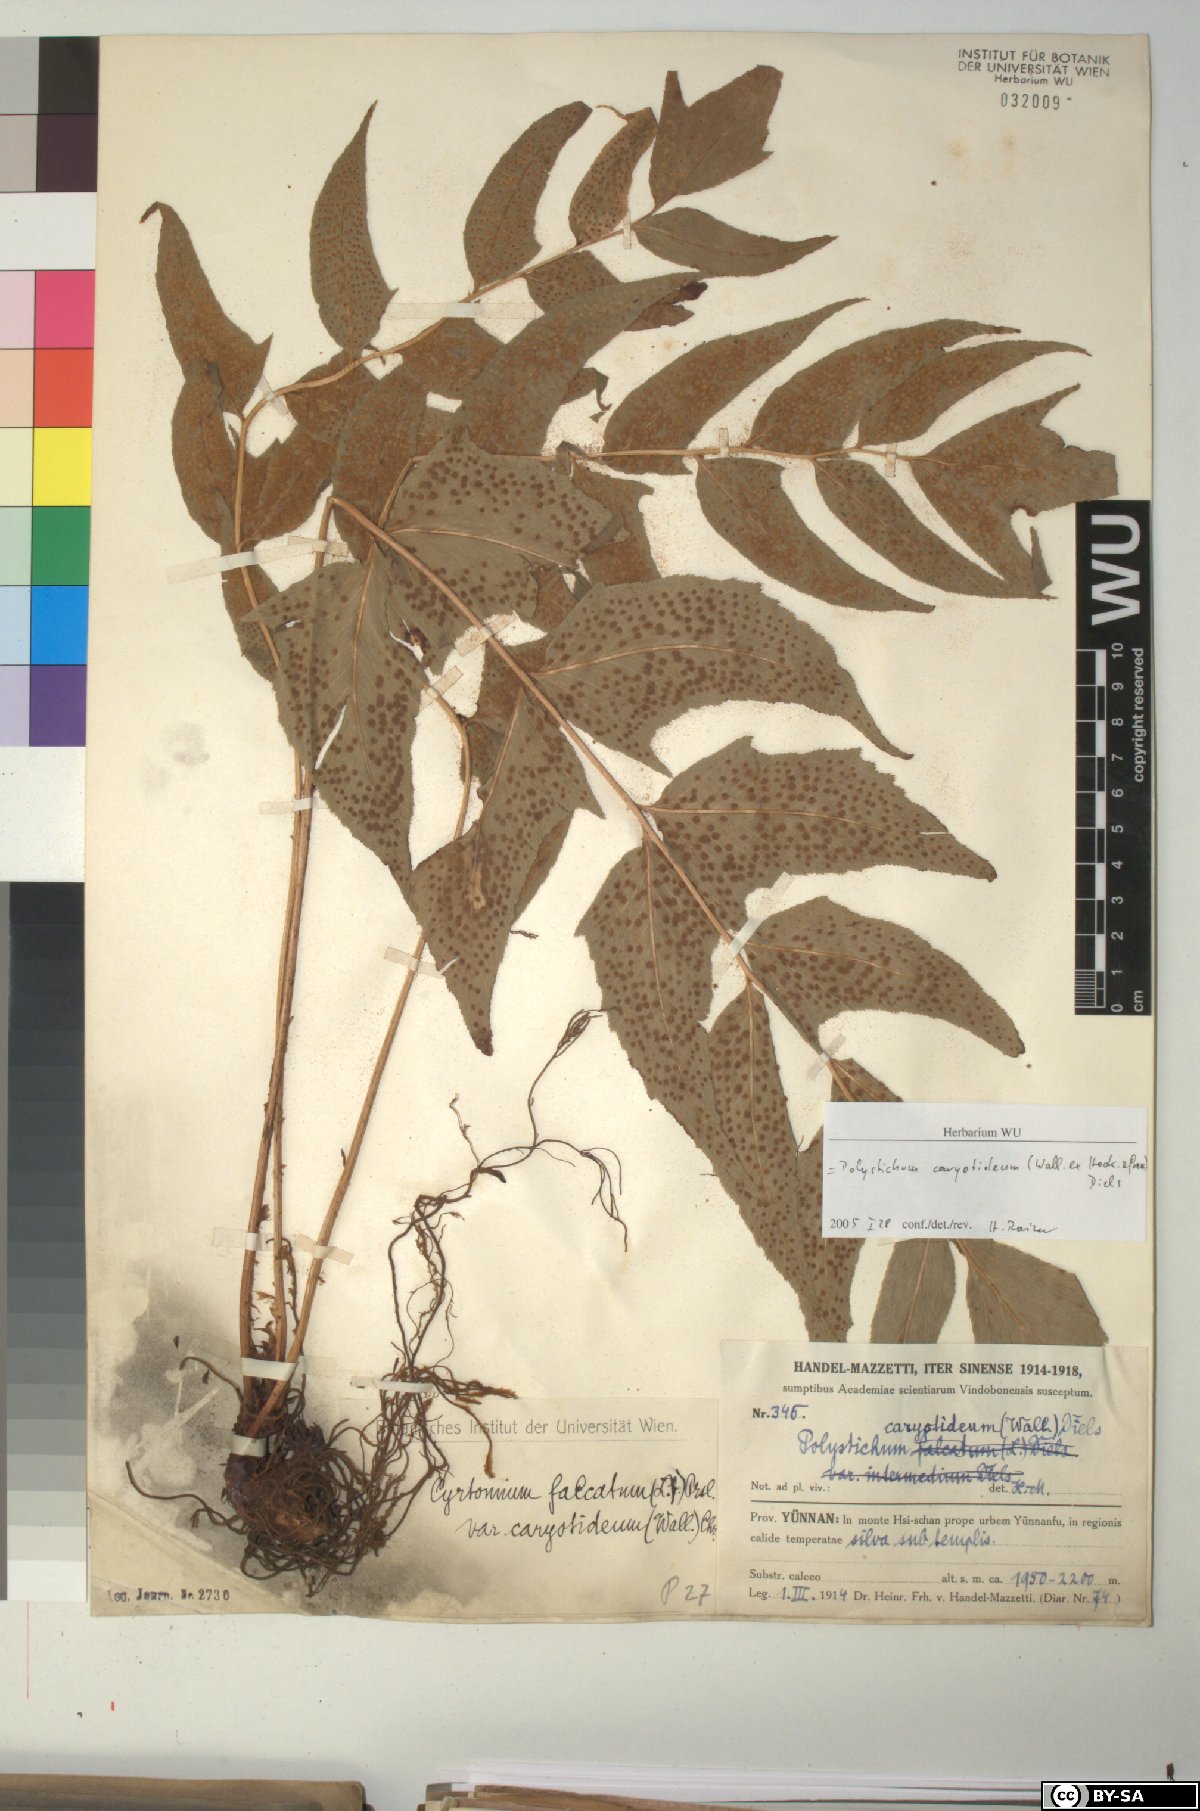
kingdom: Plantae
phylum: Tracheophyta
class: Polypodiopsida
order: Polypodiales
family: Dryopteridaceae
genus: Cyrtomium
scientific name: Cyrtomium caryotideum
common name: Asiatic holly fern
